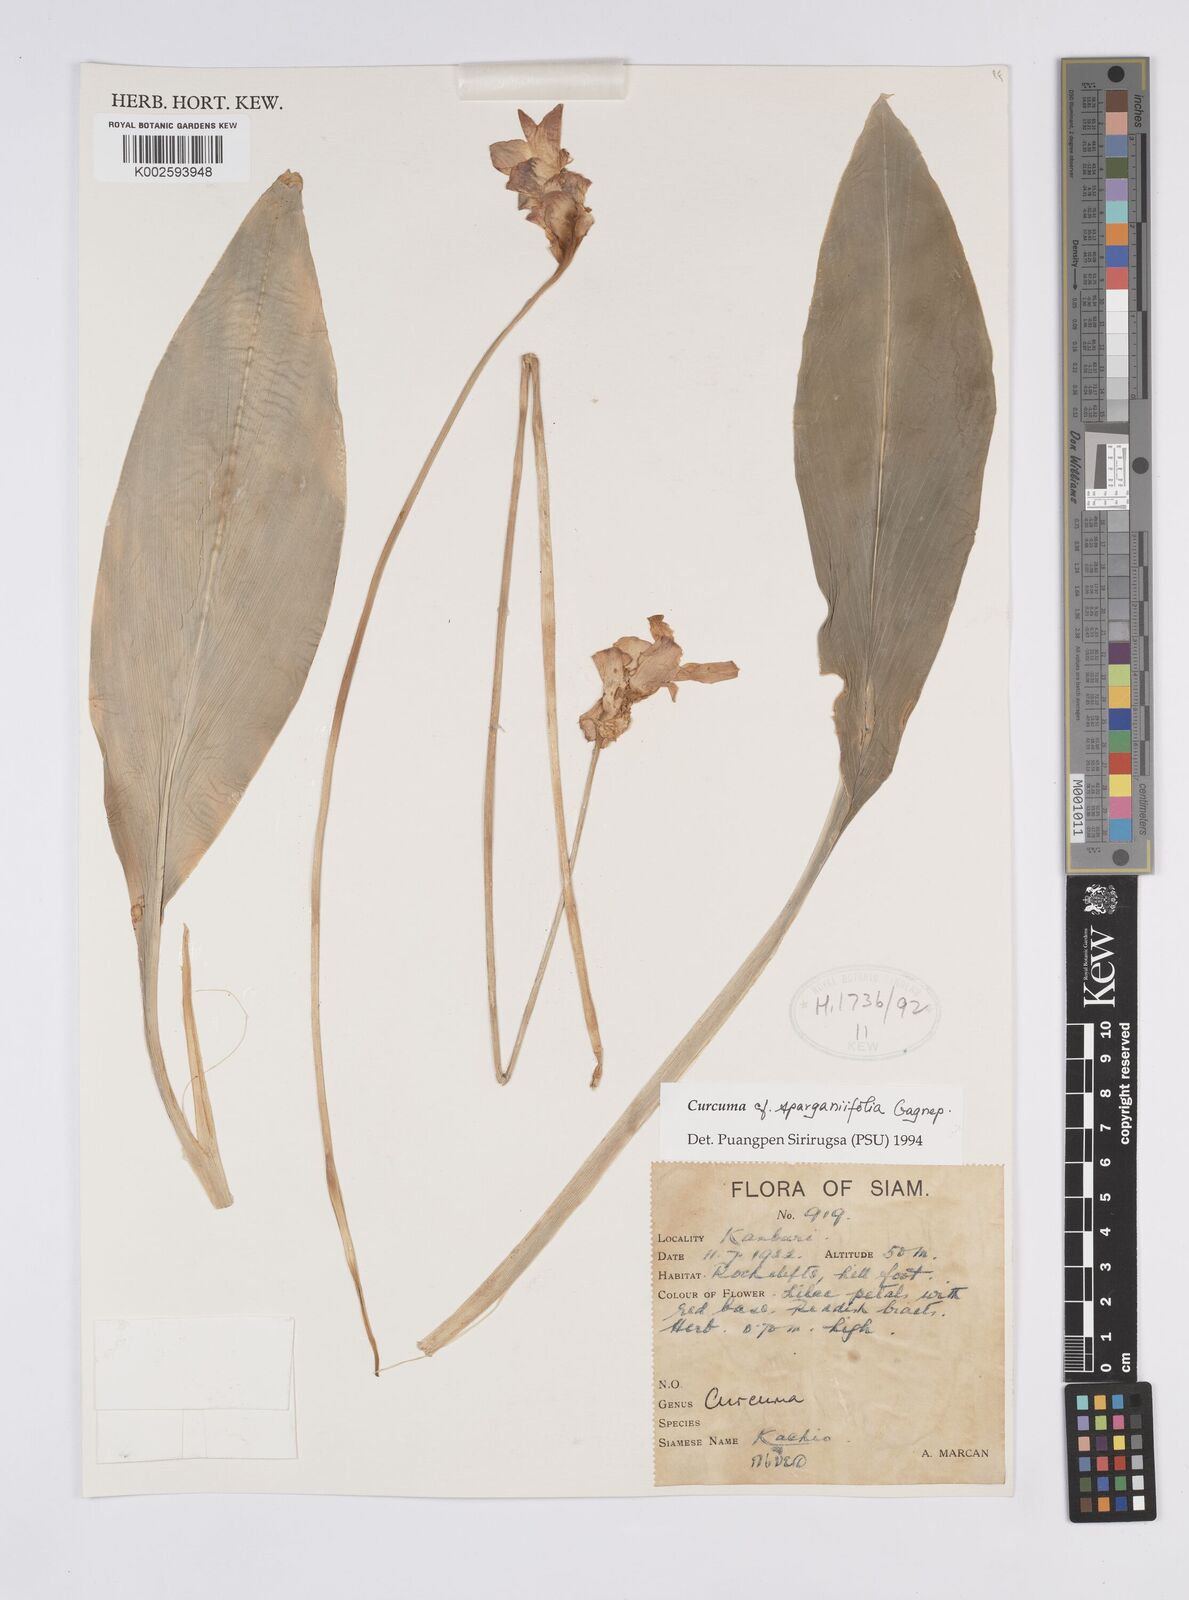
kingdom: Plantae
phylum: Tracheophyta
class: Liliopsida
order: Zingiberales
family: Zingiberaceae
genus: Curcuma
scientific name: Curcuma sparganiifolia
